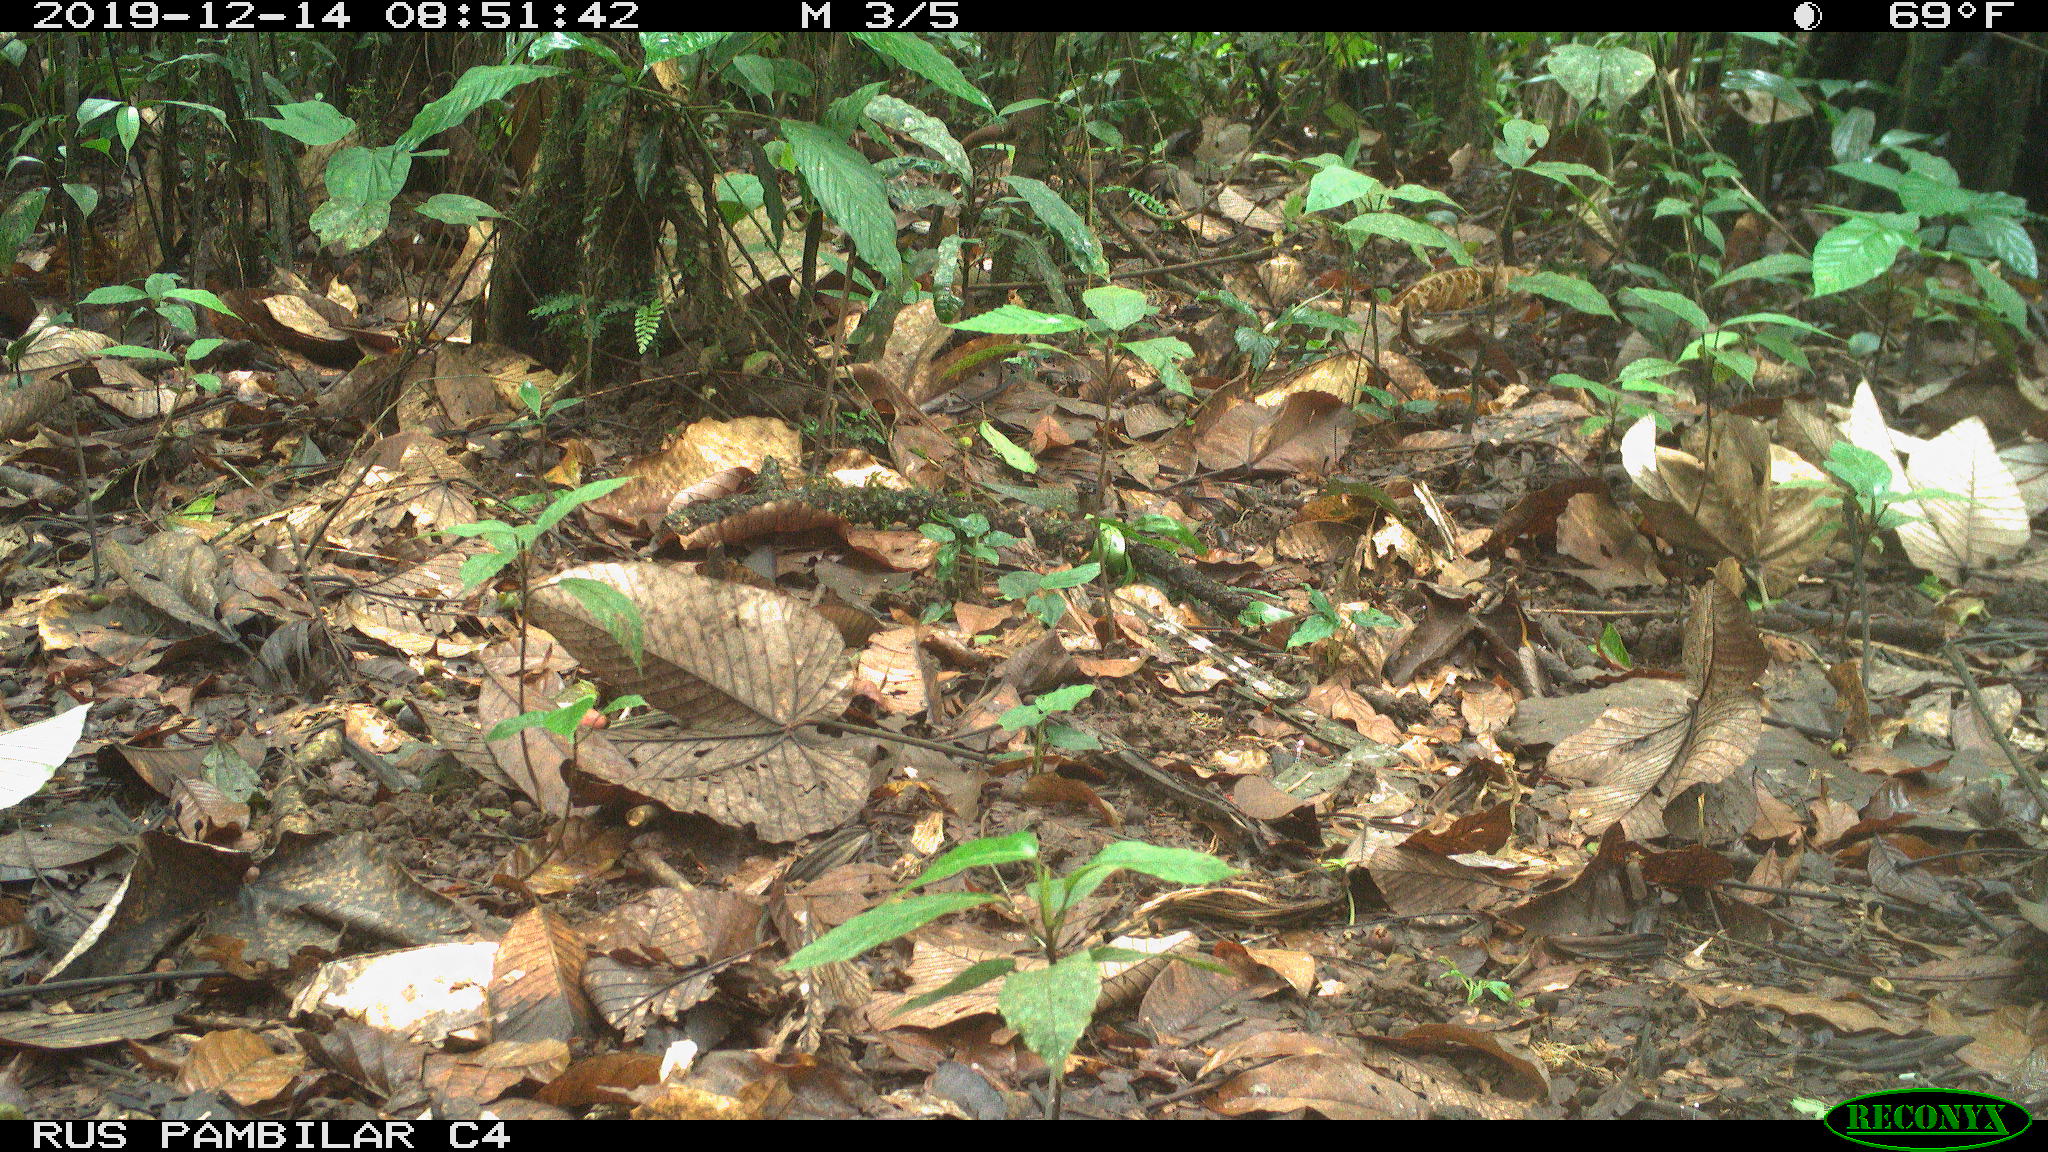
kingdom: Animalia
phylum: Chordata
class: Aves
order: Columbiformes
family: Columbidae
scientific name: Columbidae
